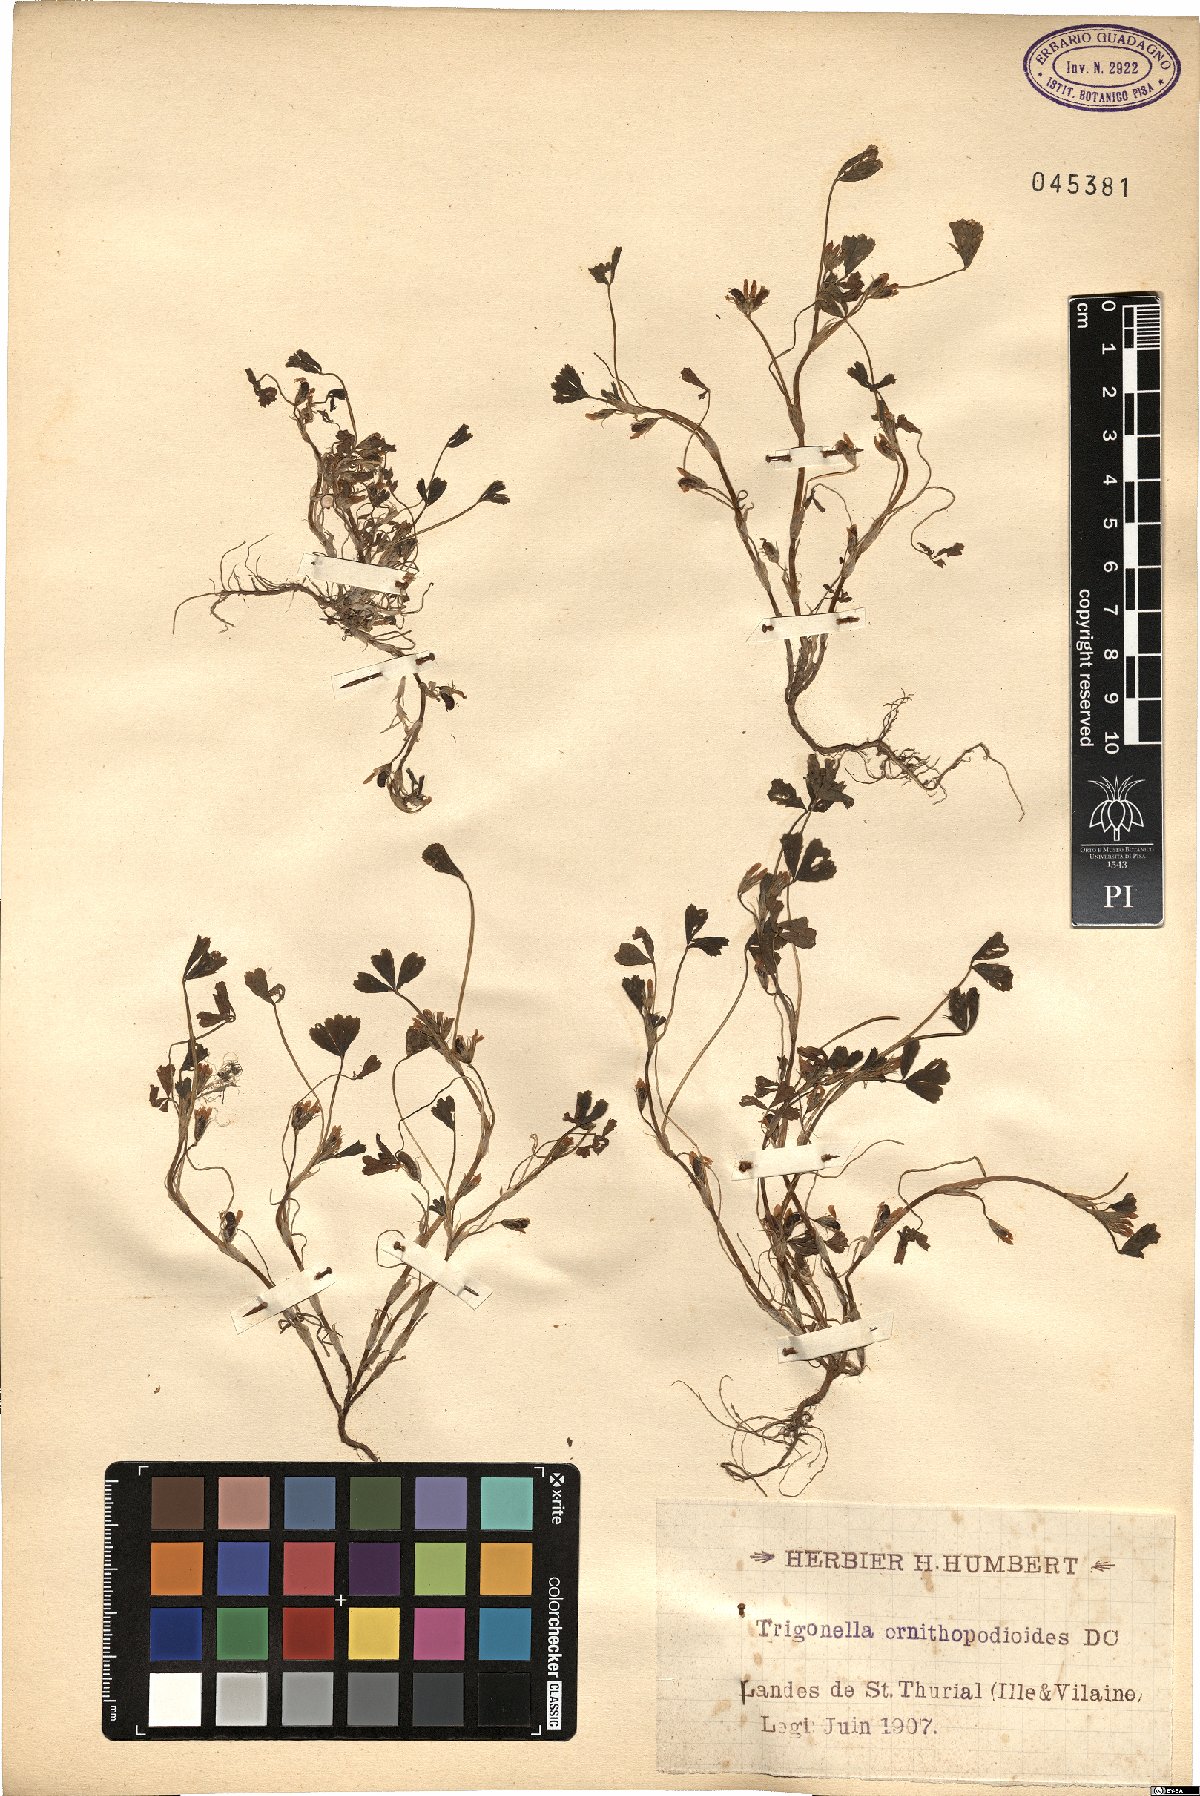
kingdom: Plantae
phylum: Tracheophyta
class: Magnoliopsida
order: Fabales
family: Fabaceae
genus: Trifolium
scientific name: Trifolium ornithopodioides
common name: Bird's-foot clover
